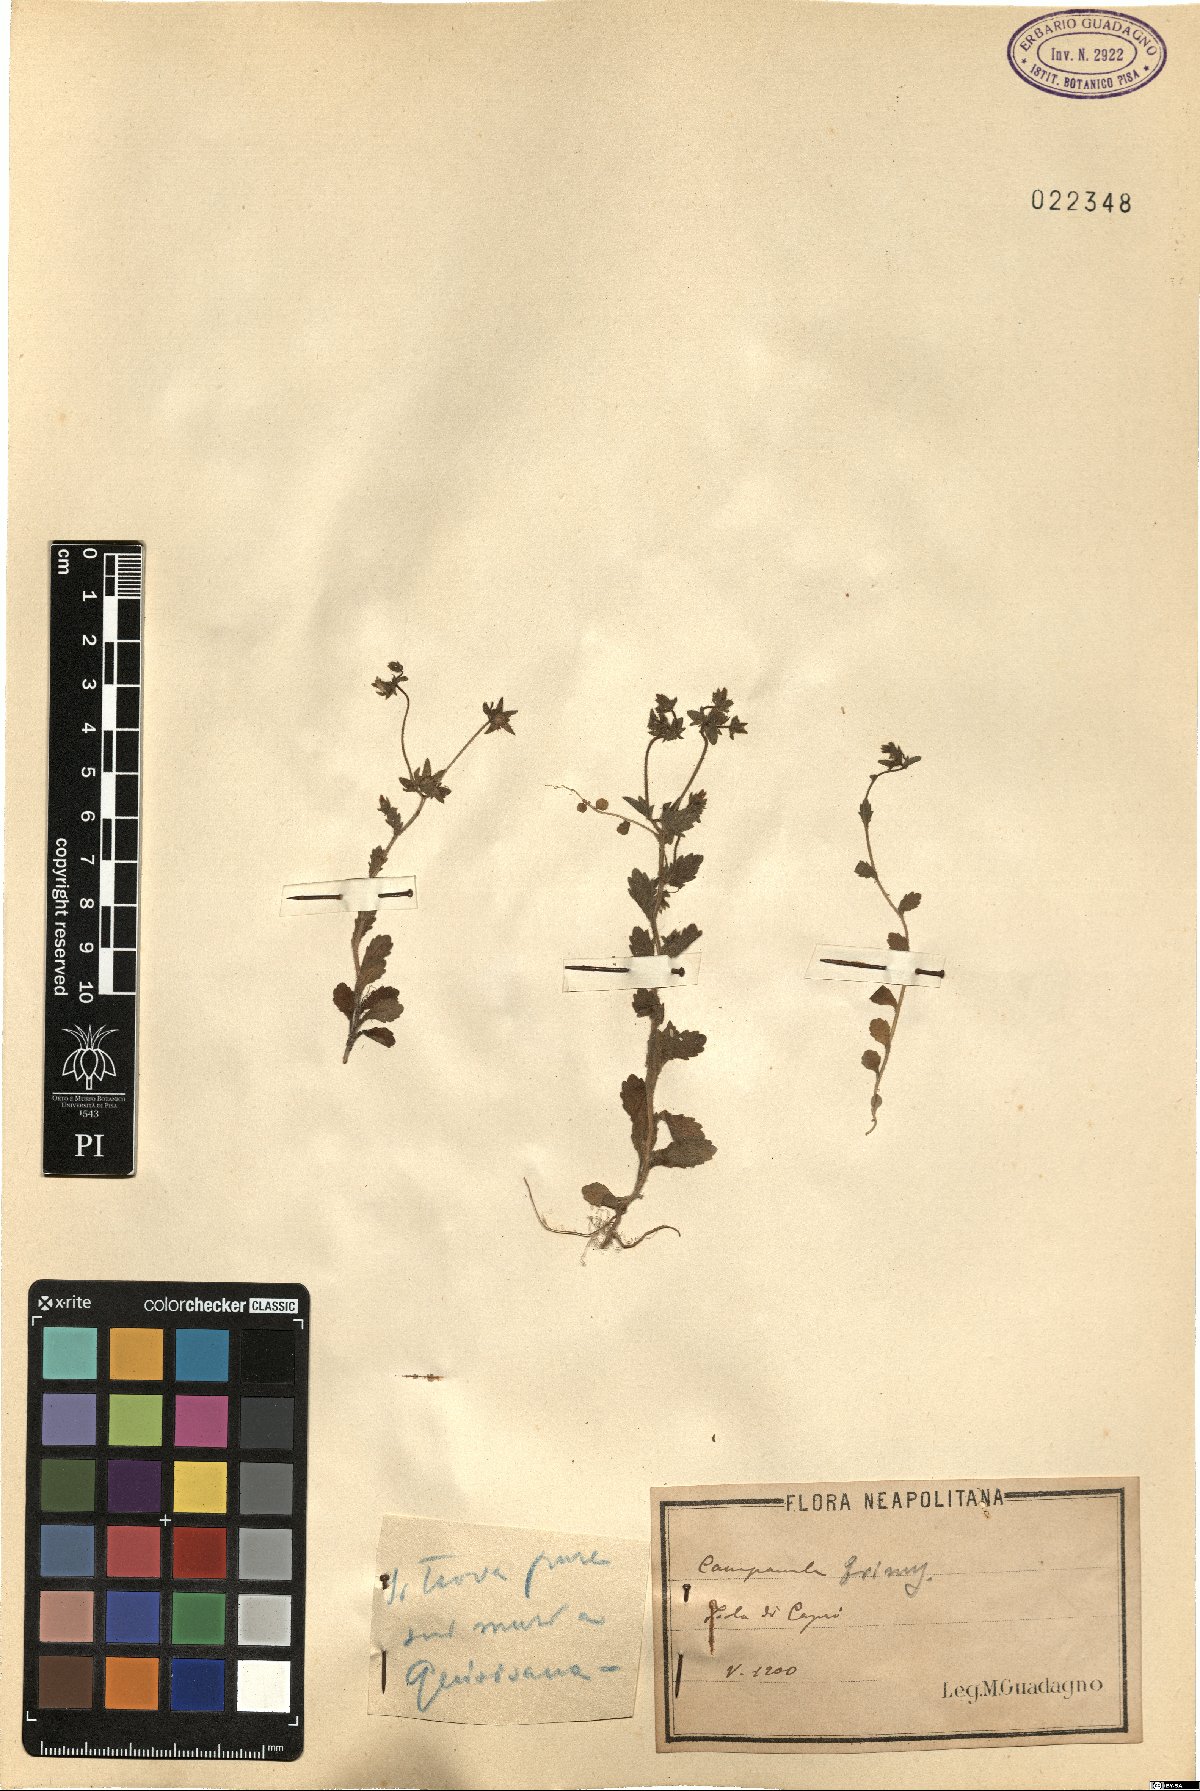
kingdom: Plantae
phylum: Tracheophyta
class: Magnoliopsida
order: Asterales
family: Campanulaceae
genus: Campanula
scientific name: Campanula erinus
